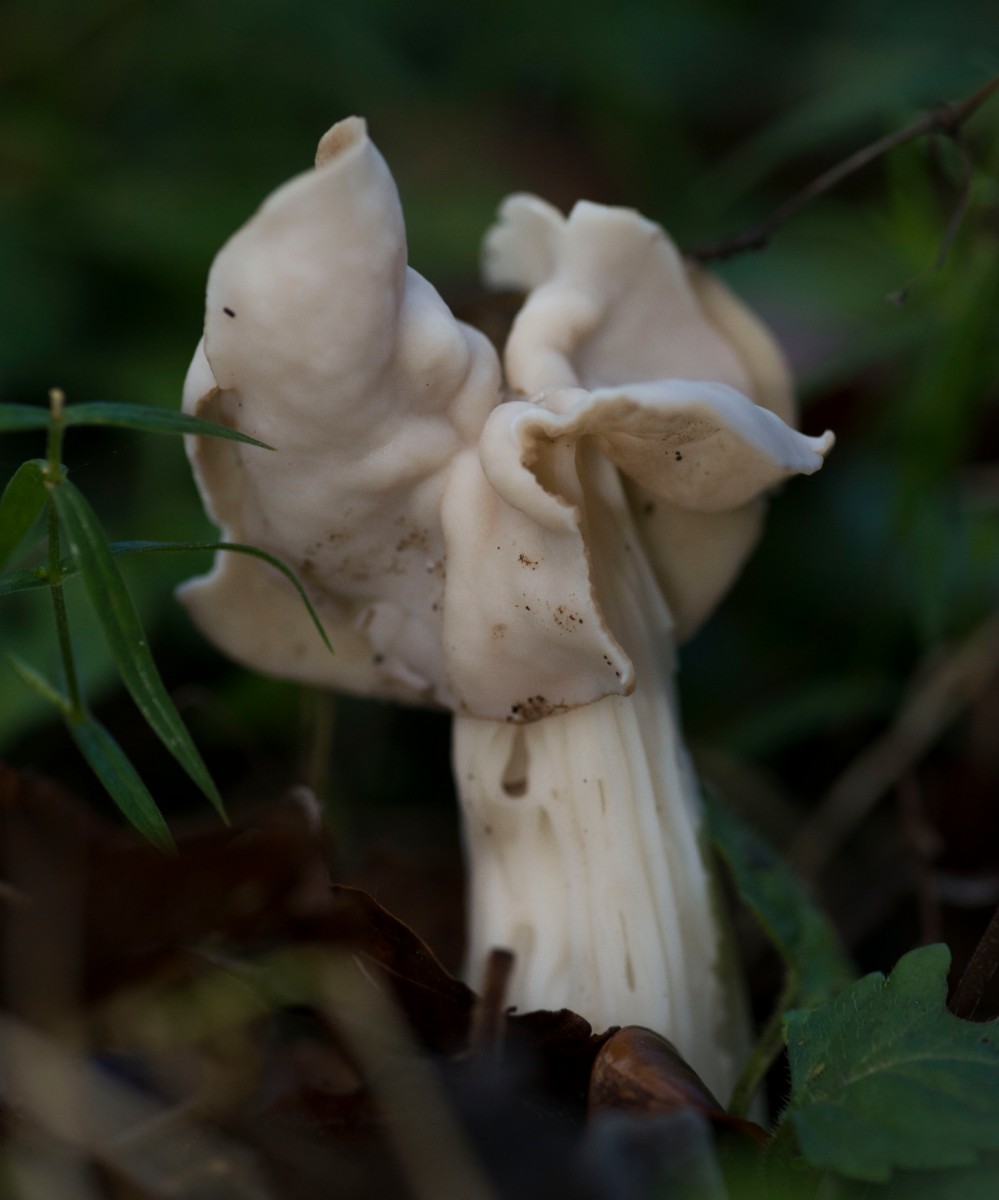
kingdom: Fungi
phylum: Ascomycota
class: Pezizomycetes
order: Pezizales
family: Helvellaceae
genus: Helvella
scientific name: Helvella crispa
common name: kruset foldhat
